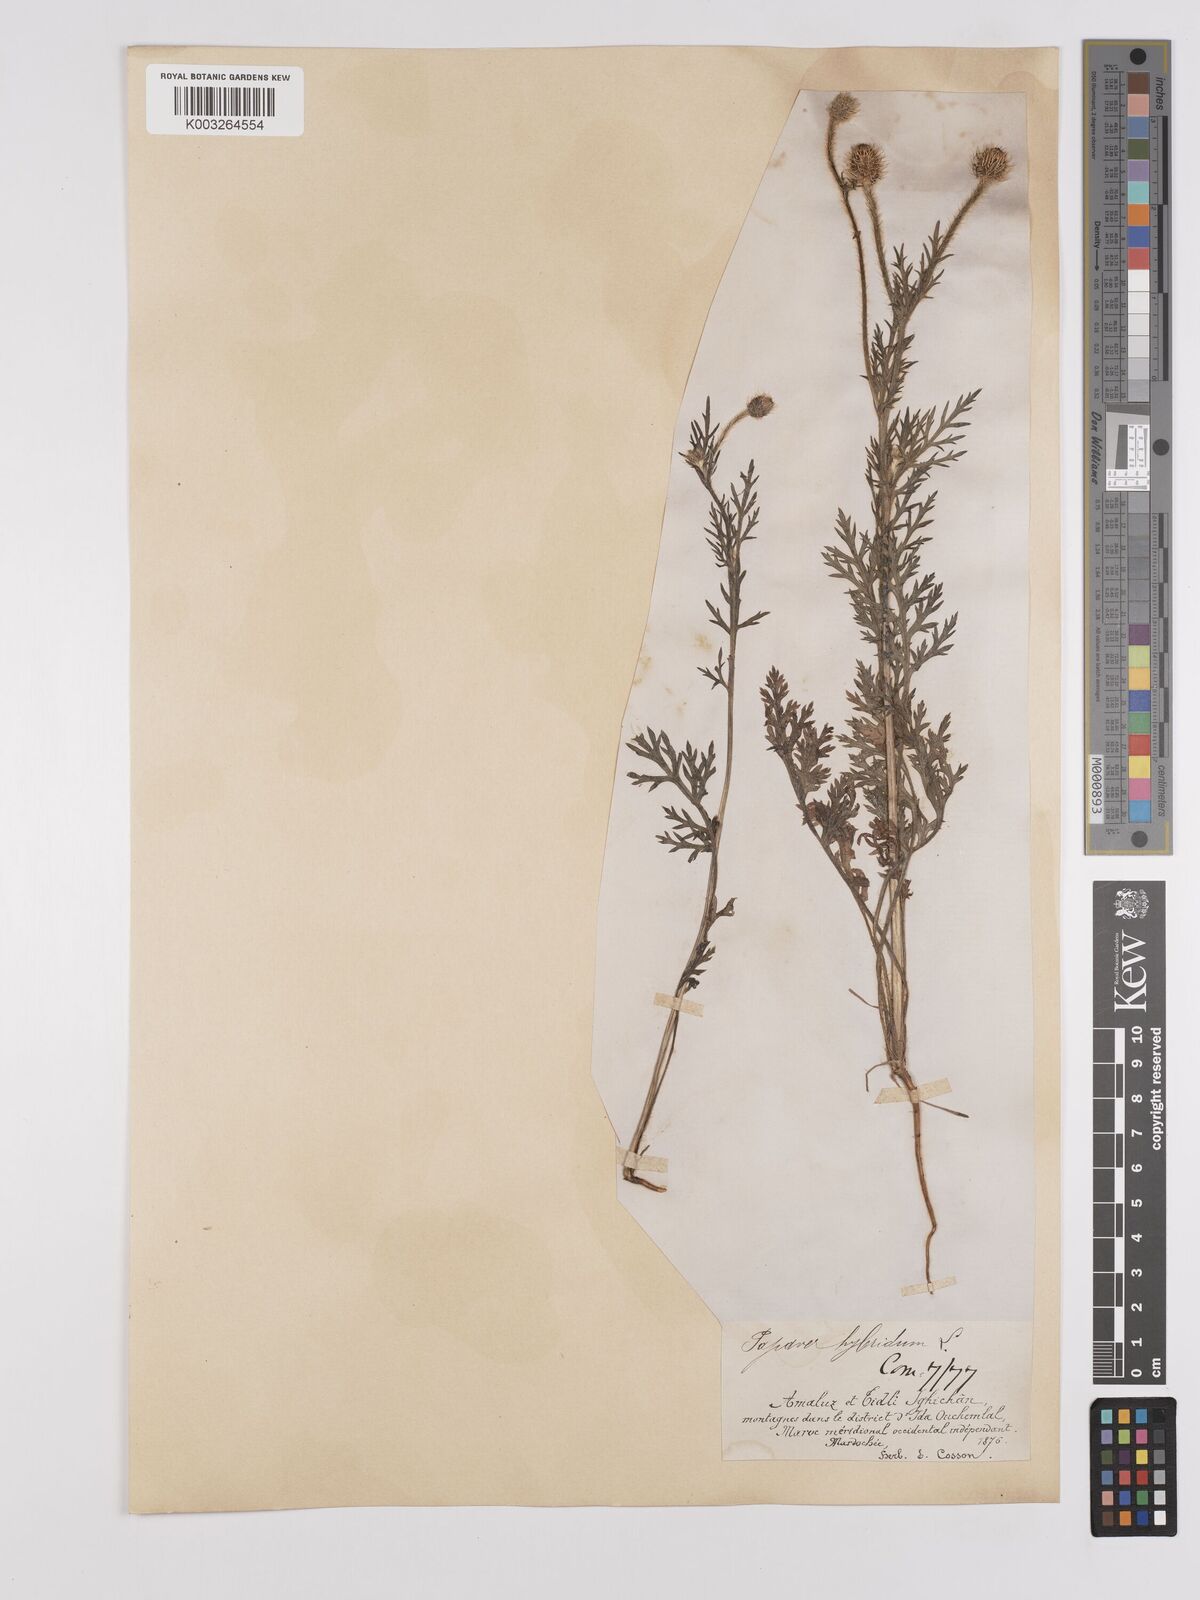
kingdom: Plantae
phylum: Tracheophyta
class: Magnoliopsida
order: Ranunculales
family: Papaveraceae
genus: Papaver
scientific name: Papaver
